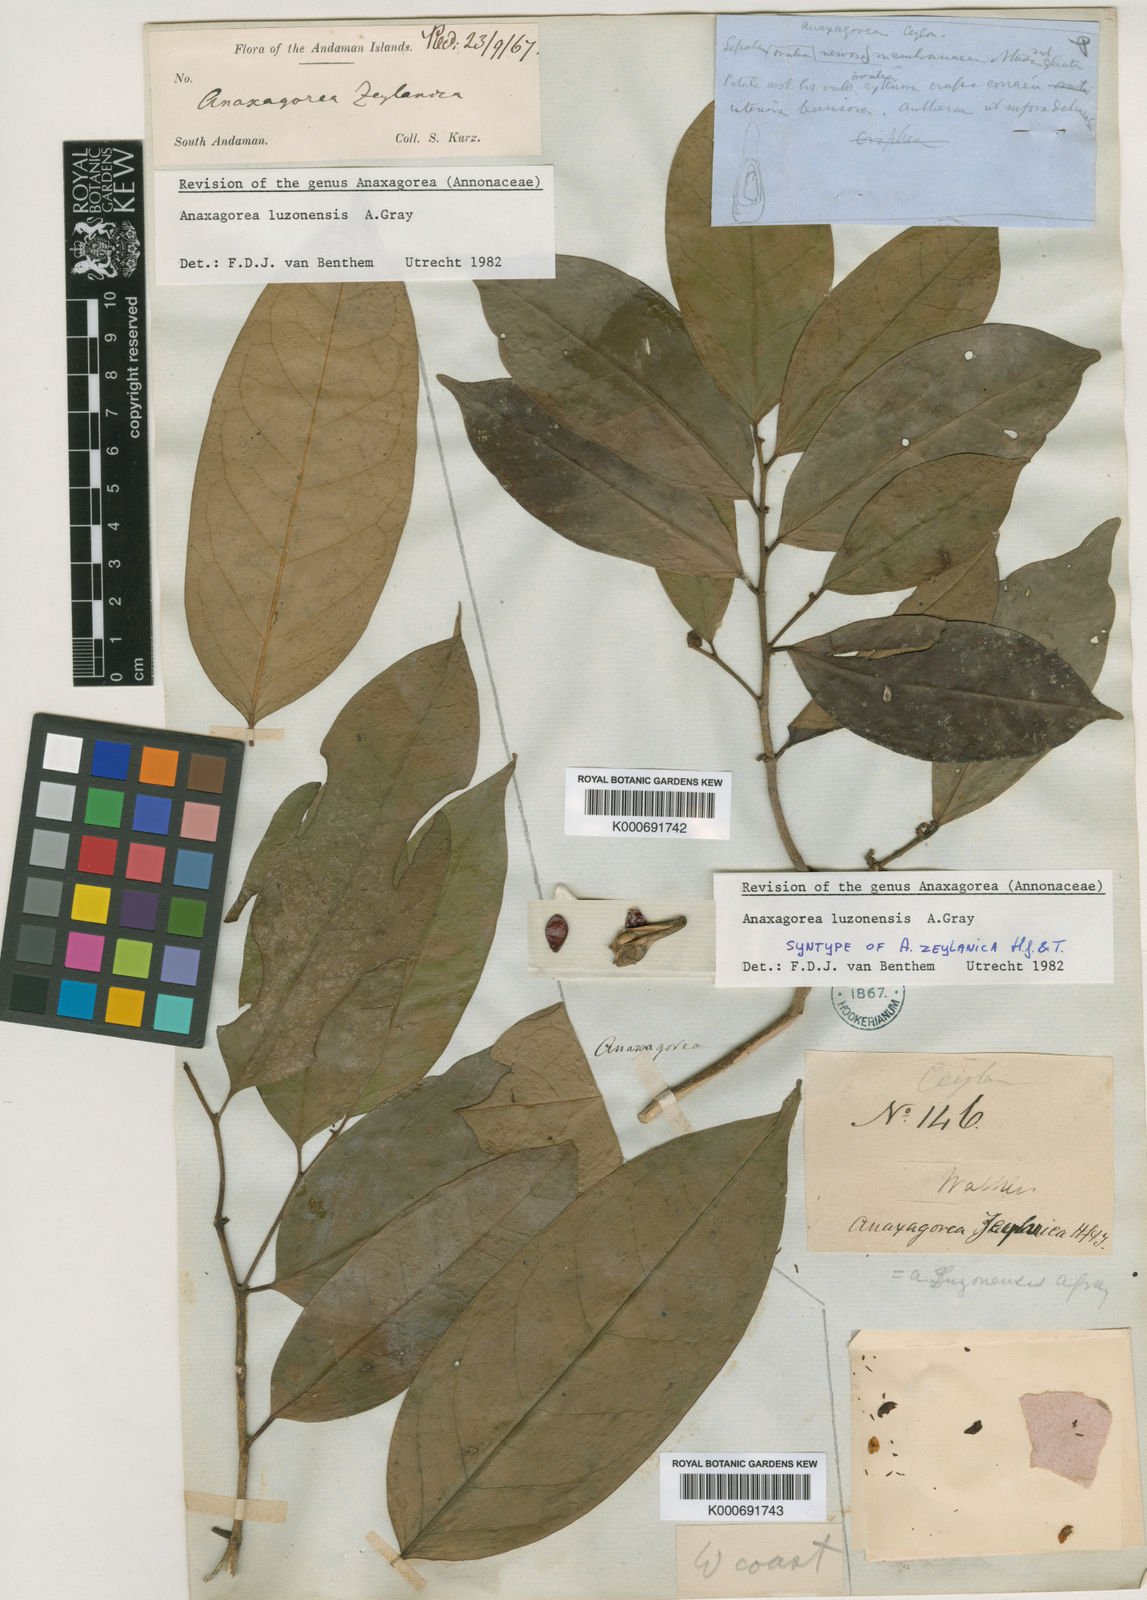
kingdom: Plantae
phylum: Tracheophyta
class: Magnoliopsida
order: Magnoliales
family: Annonaceae
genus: Anaxagorea
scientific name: Anaxagorea luzonensis
